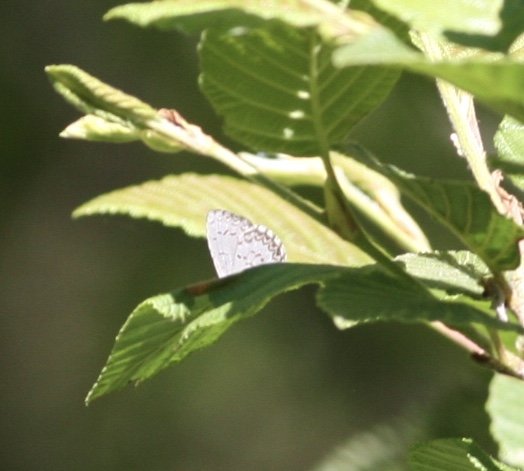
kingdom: Animalia
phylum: Arthropoda
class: Insecta
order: Lepidoptera
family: Lycaenidae
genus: Celastrina
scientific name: Celastrina lucia
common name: Northern Spring Azure
